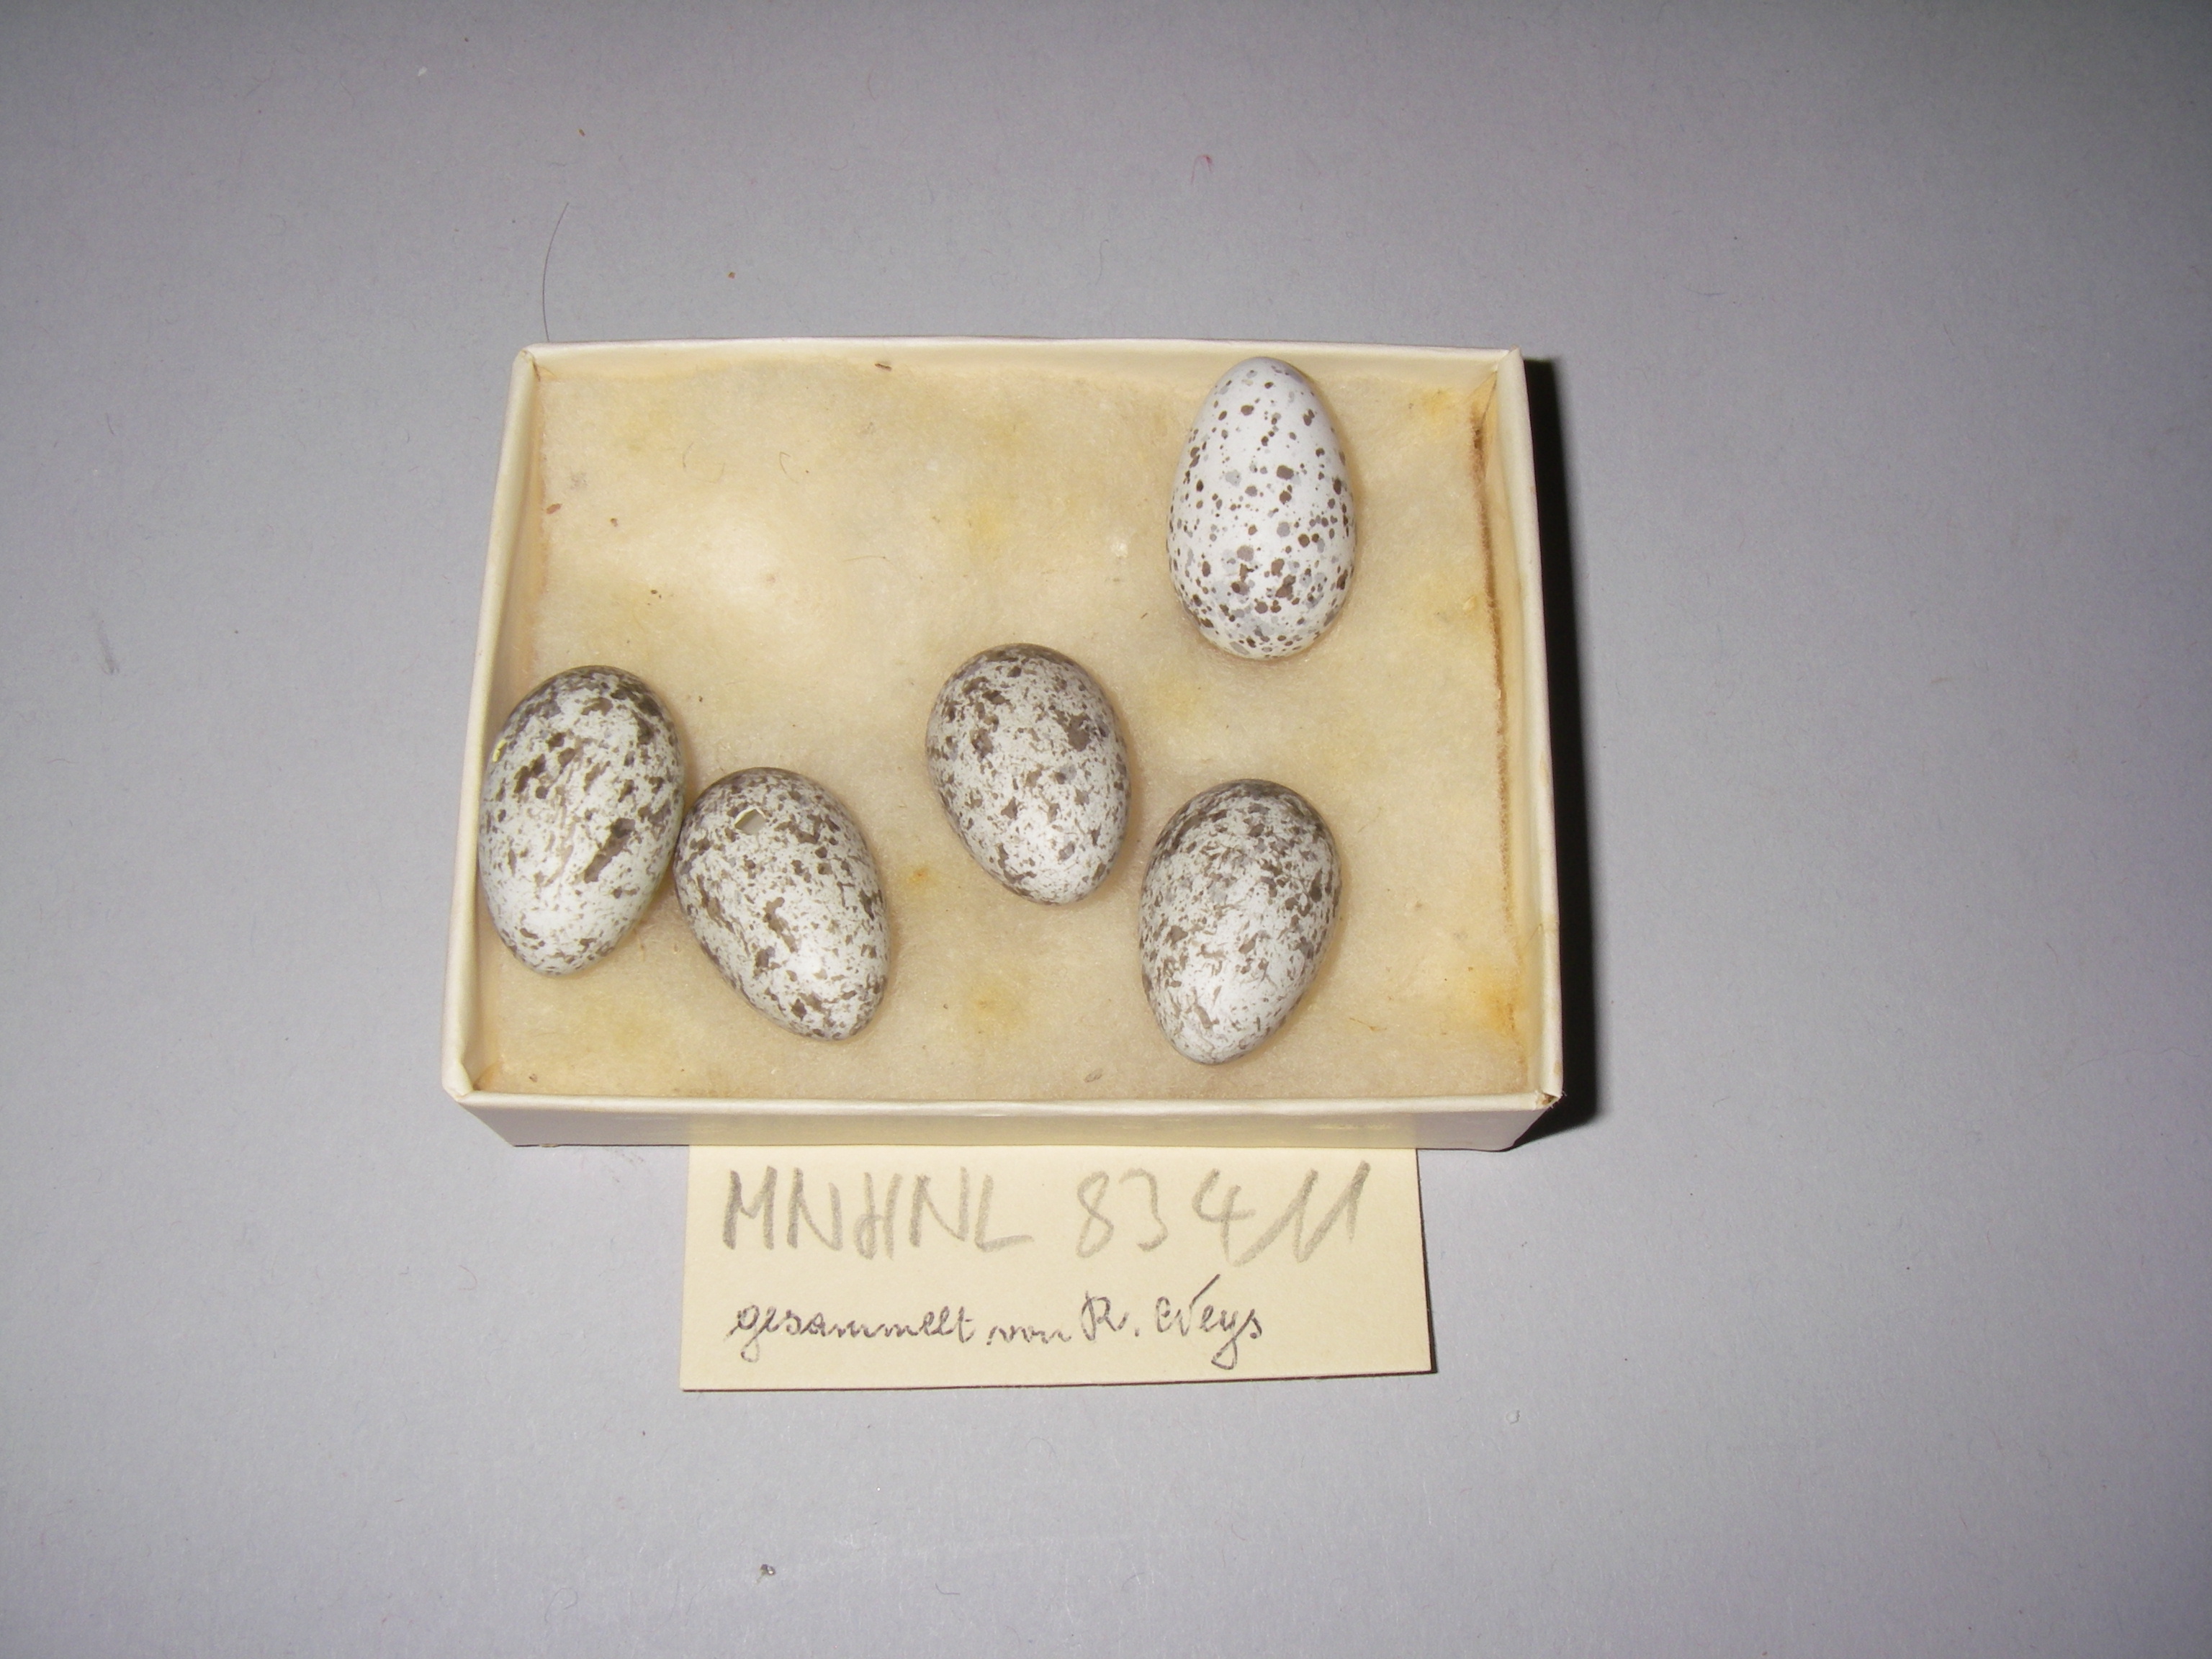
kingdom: Animalia
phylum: Chordata
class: Aves
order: Passeriformes
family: Passeridae
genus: Passer
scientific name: Passer domesticus
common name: House sparrow
